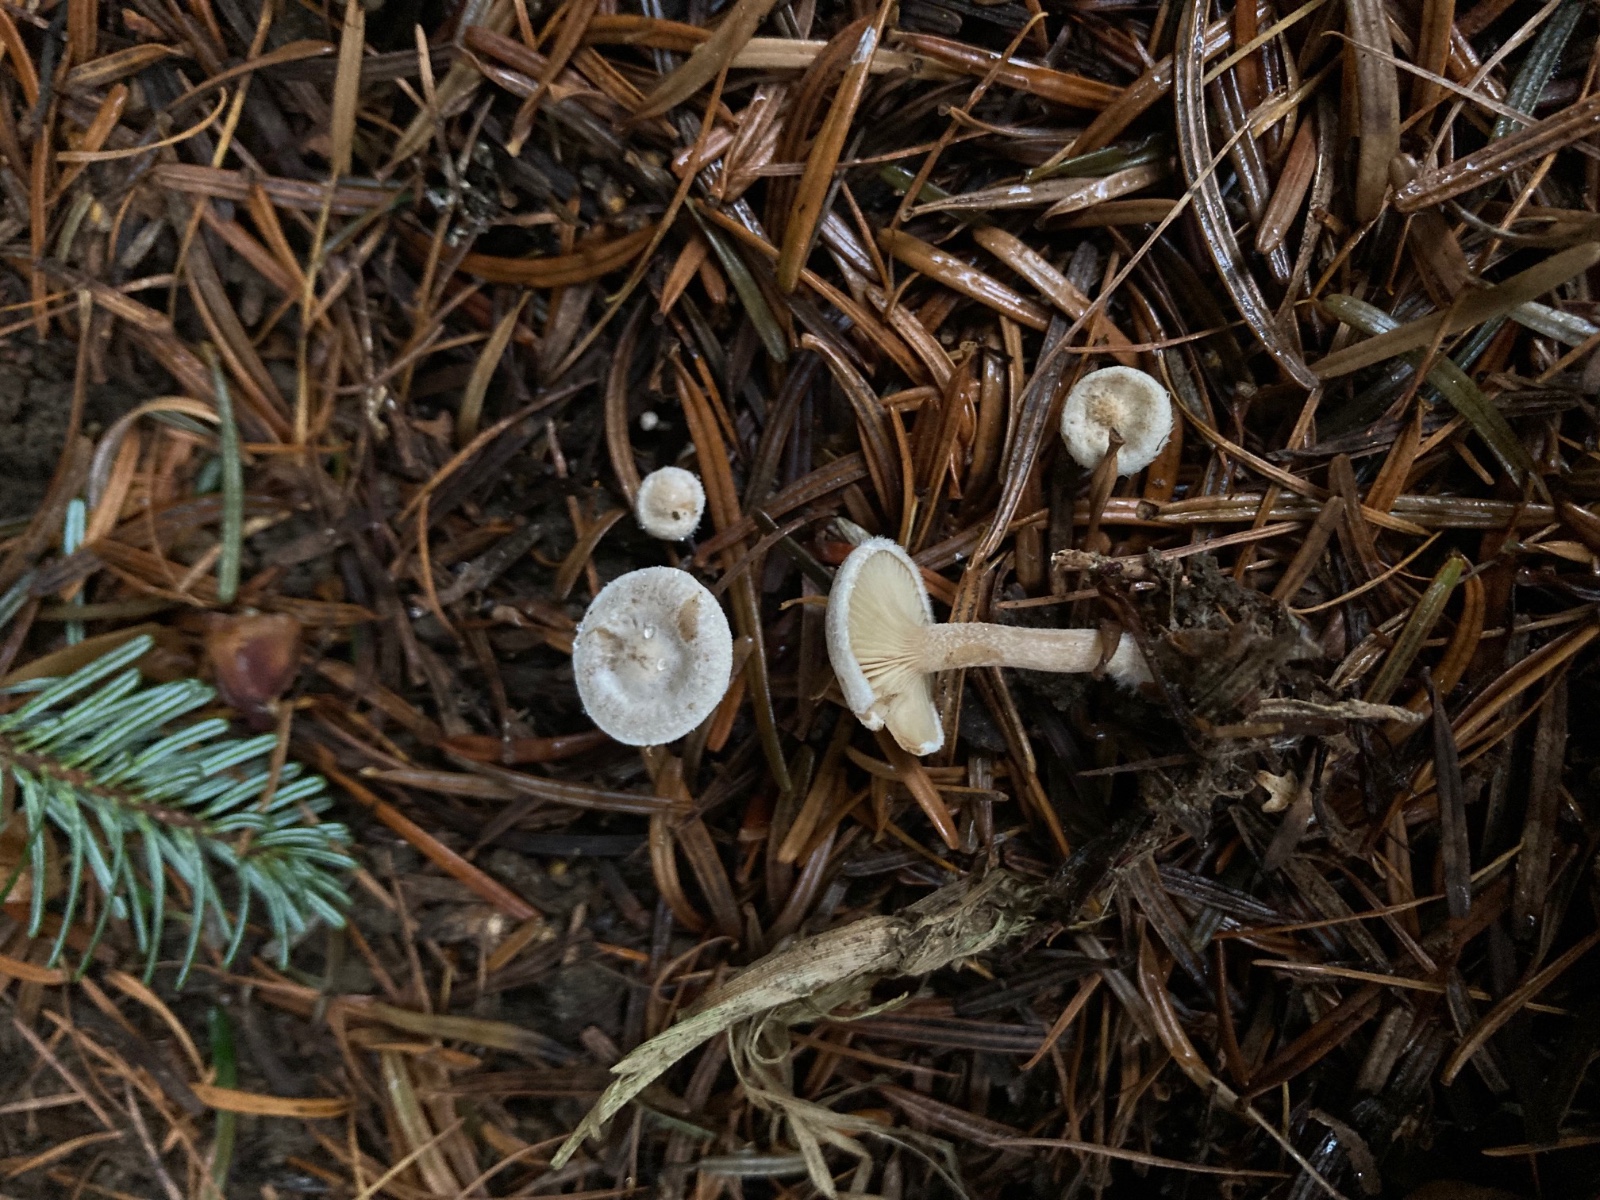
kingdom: Fungi
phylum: Basidiomycota
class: Agaricomycetes
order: Agaricales
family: Tricholomataceae
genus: Ripartites
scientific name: Ripartites tricholoma
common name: almindelig skæghat
